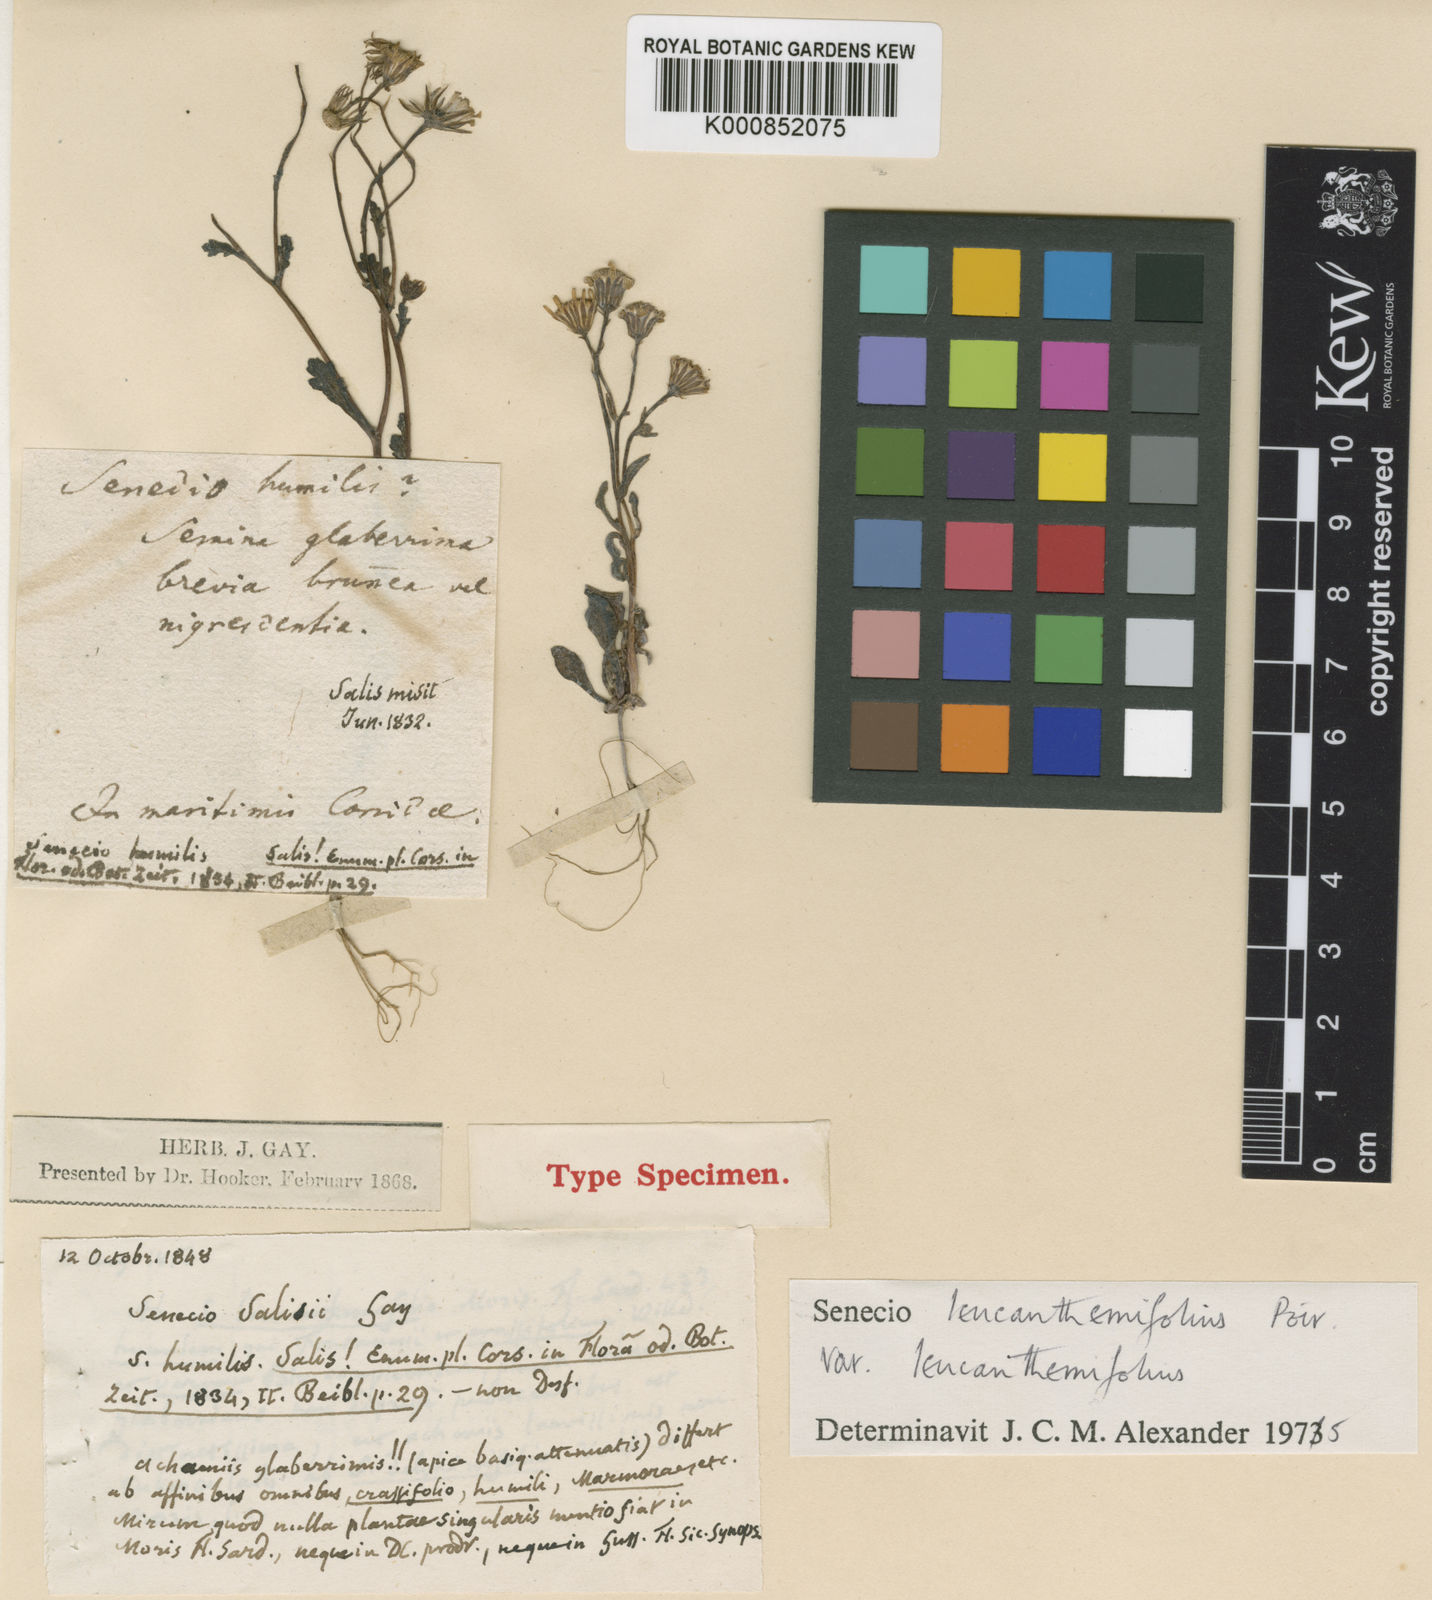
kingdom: Plantae
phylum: Tracheophyta
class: Magnoliopsida
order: Asterales
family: Asteraceae
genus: Senecio
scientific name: Senecio leucanthemifolius
